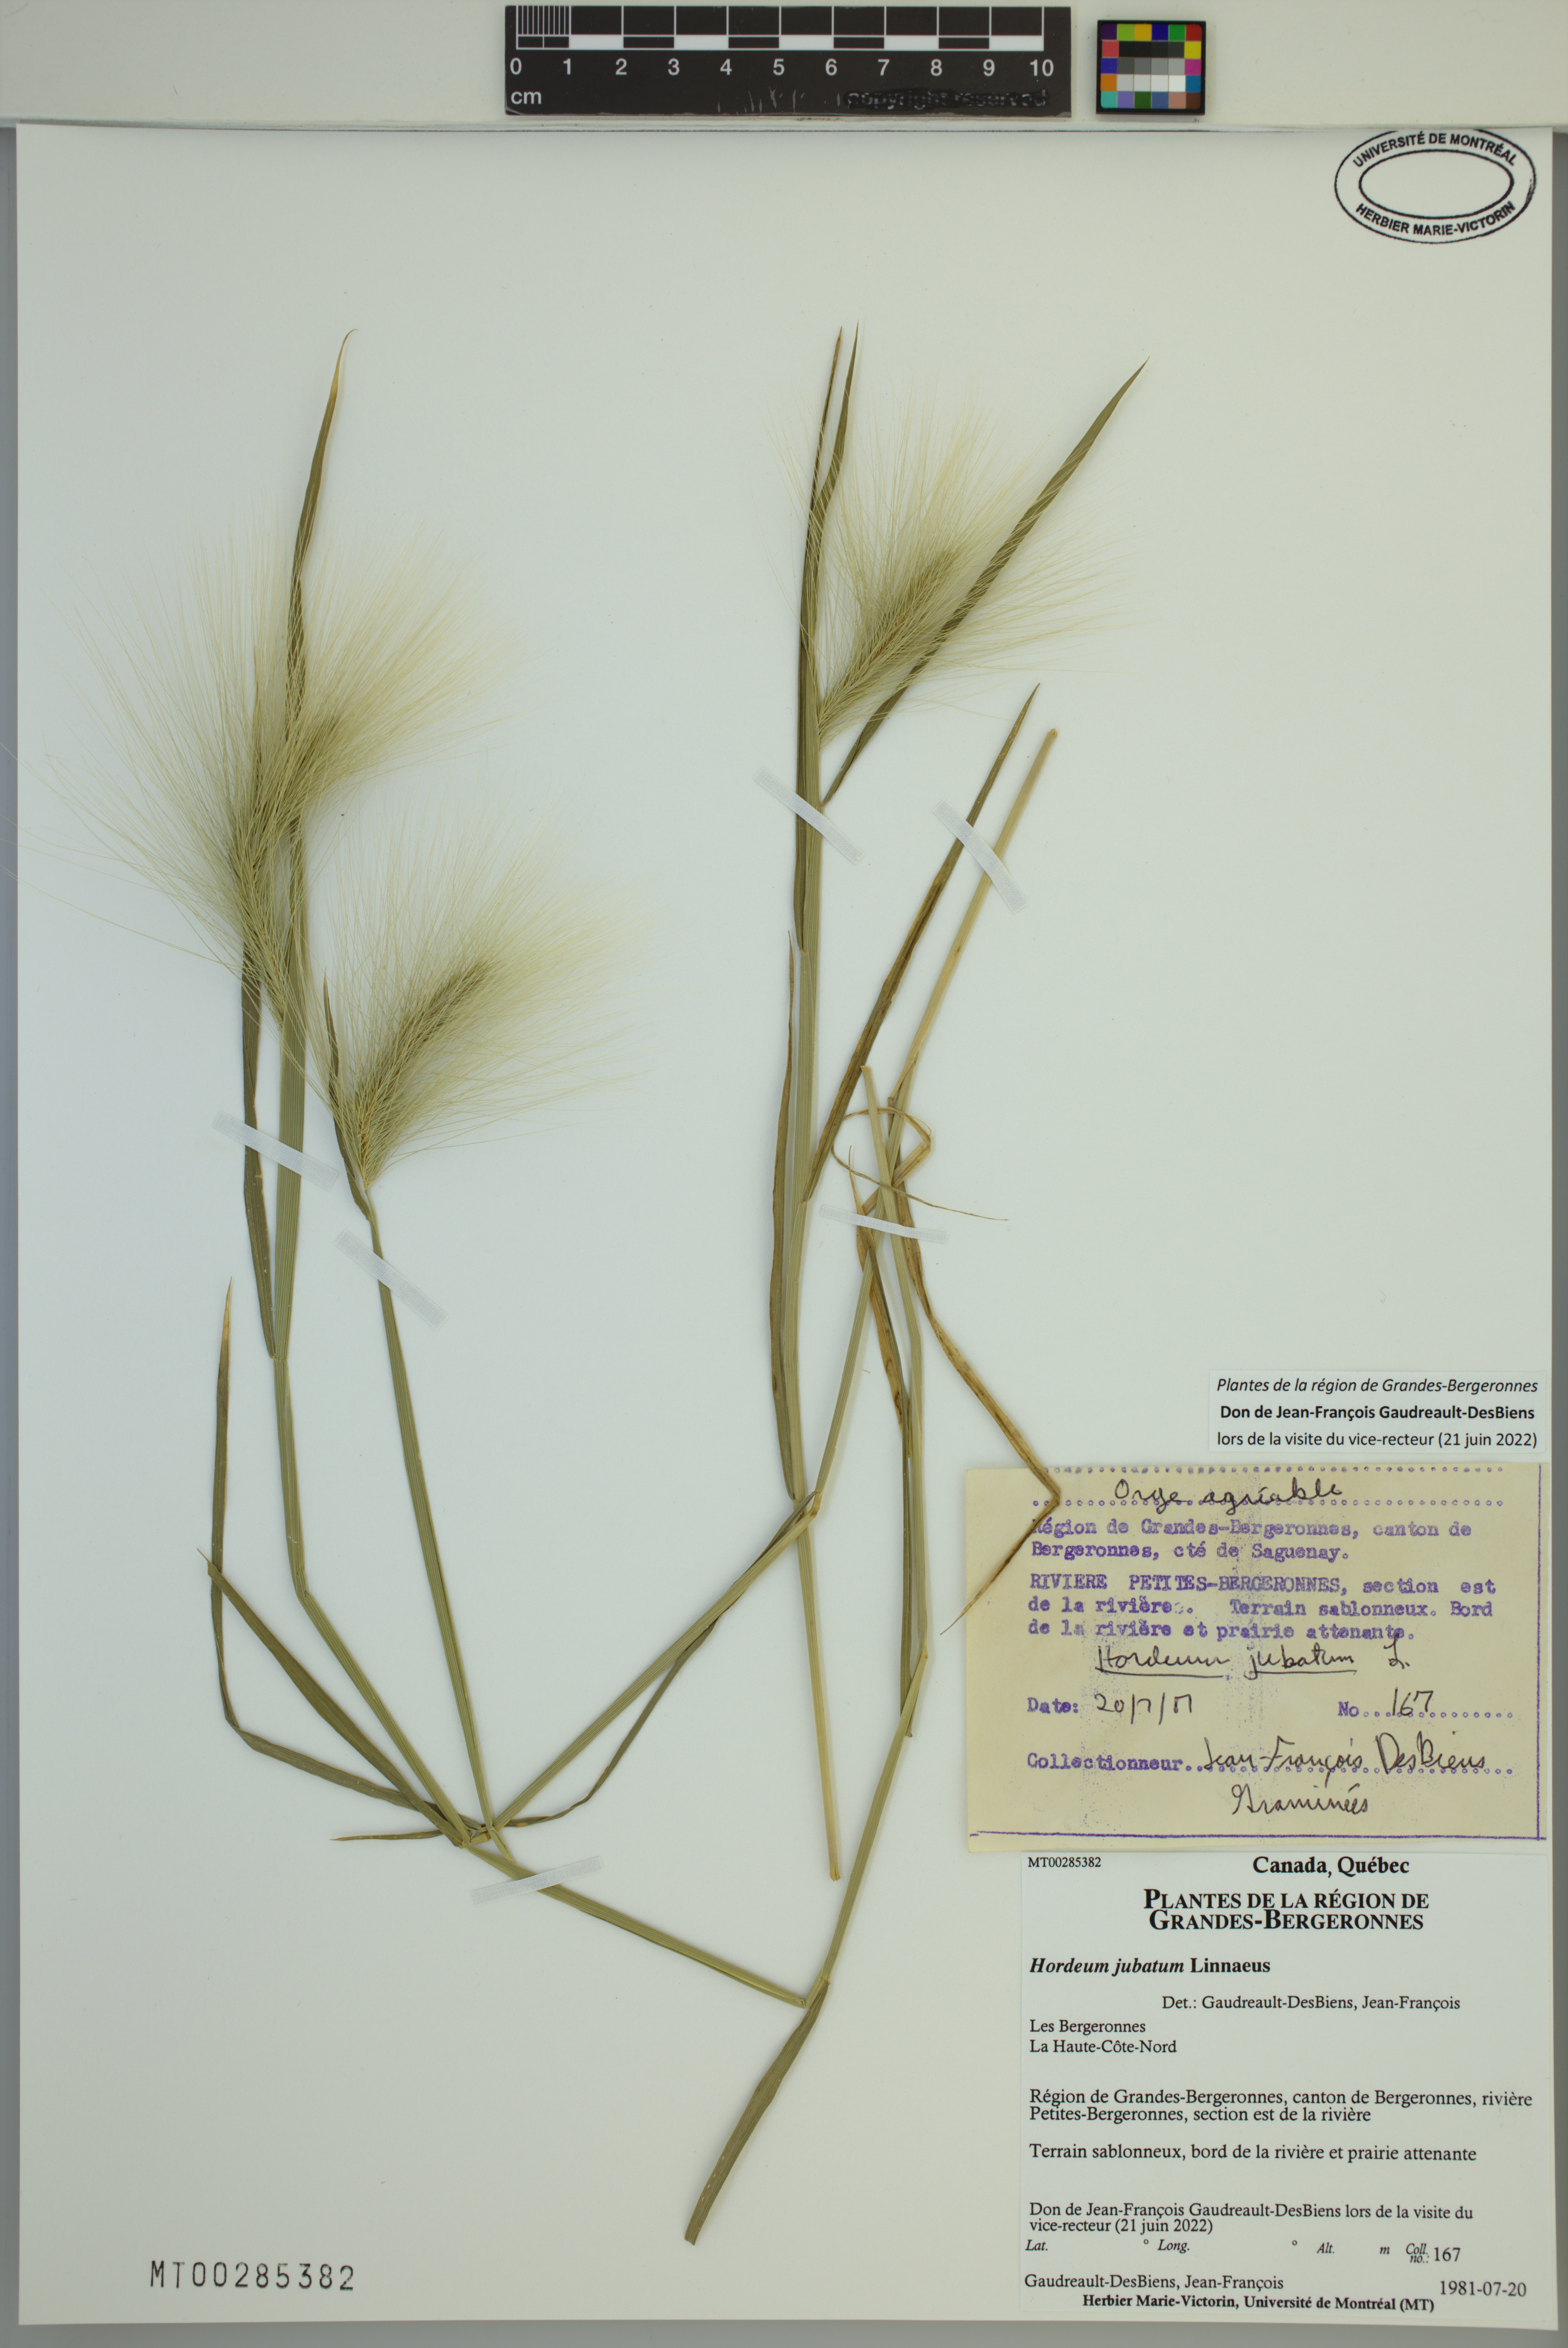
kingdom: Plantae
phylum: Tracheophyta
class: Liliopsida
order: Poales
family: Poaceae
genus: Hordeum
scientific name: Hordeum jubatum
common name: Foxtail barley
